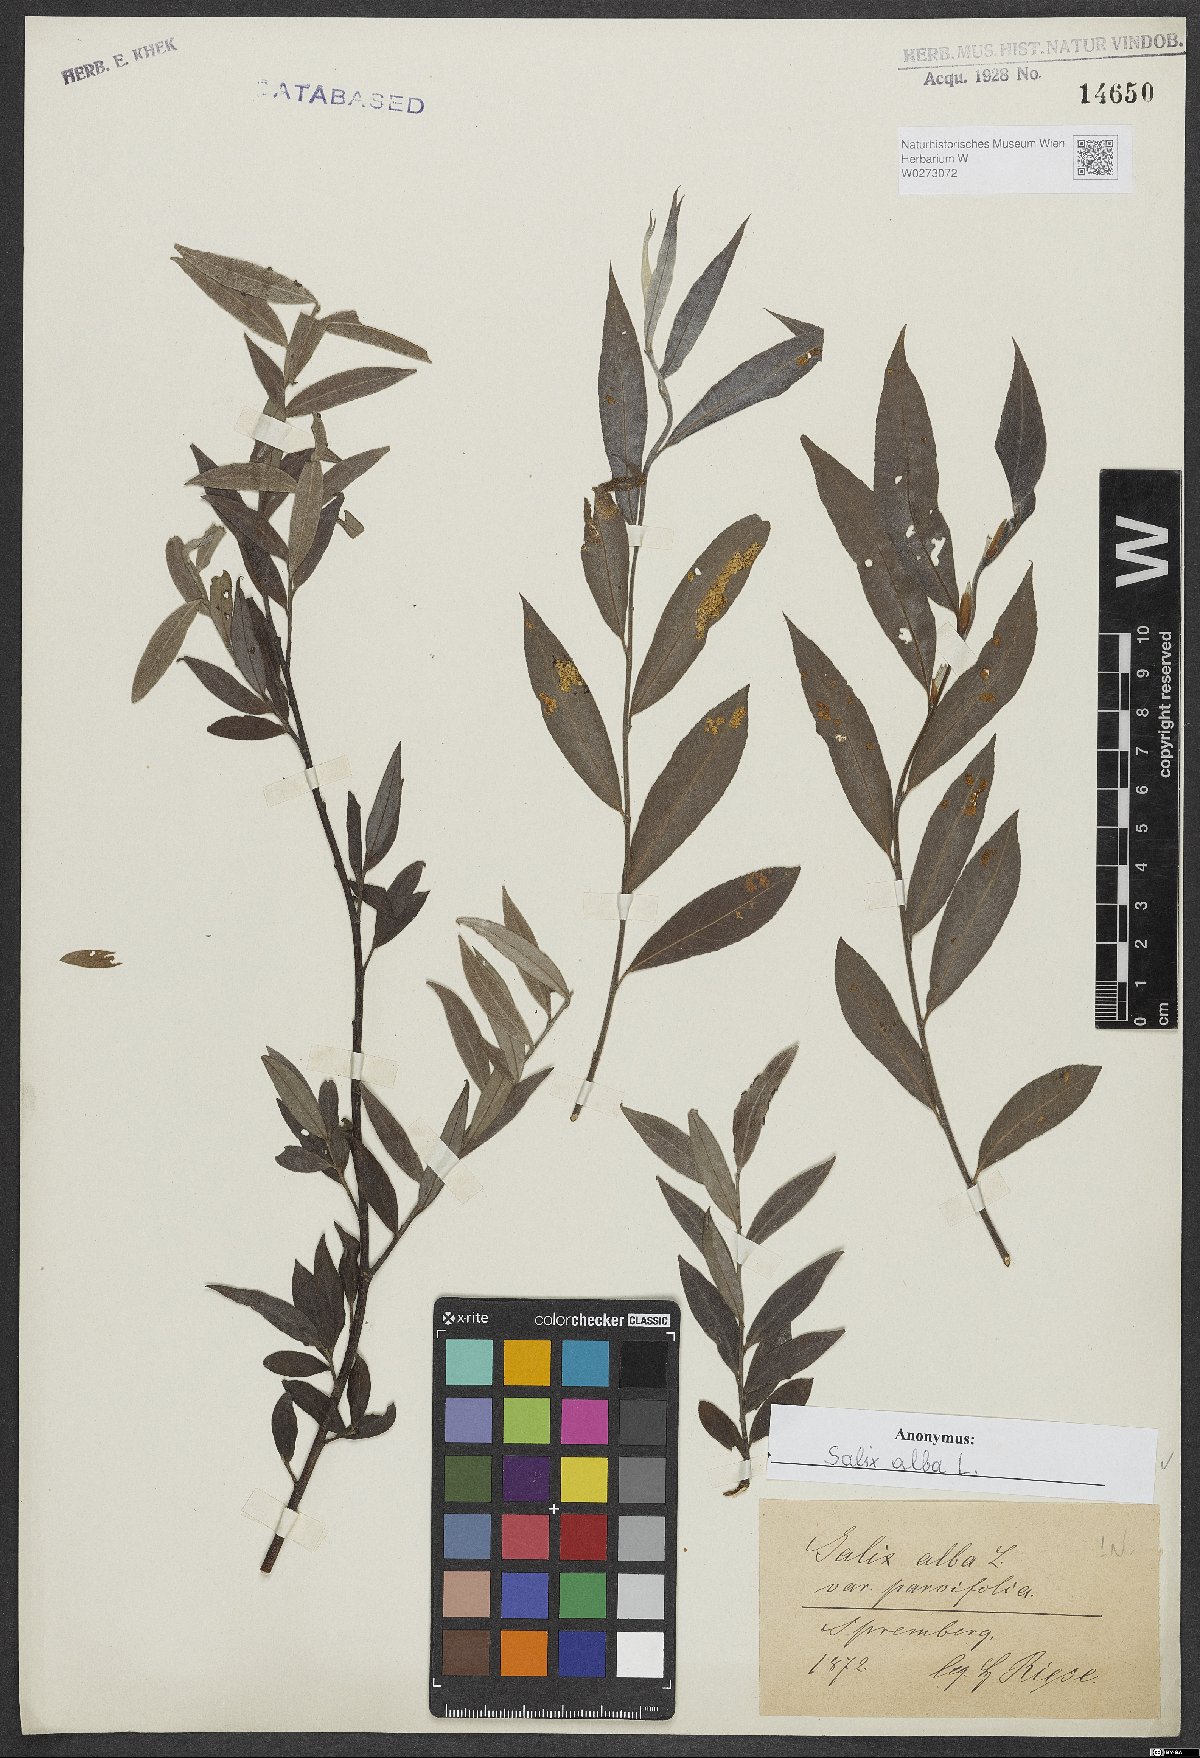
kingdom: Plantae
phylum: Tracheophyta
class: Magnoliopsida
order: Malpighiales
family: Salicaceae
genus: Salix
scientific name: Salix alba
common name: White willow
